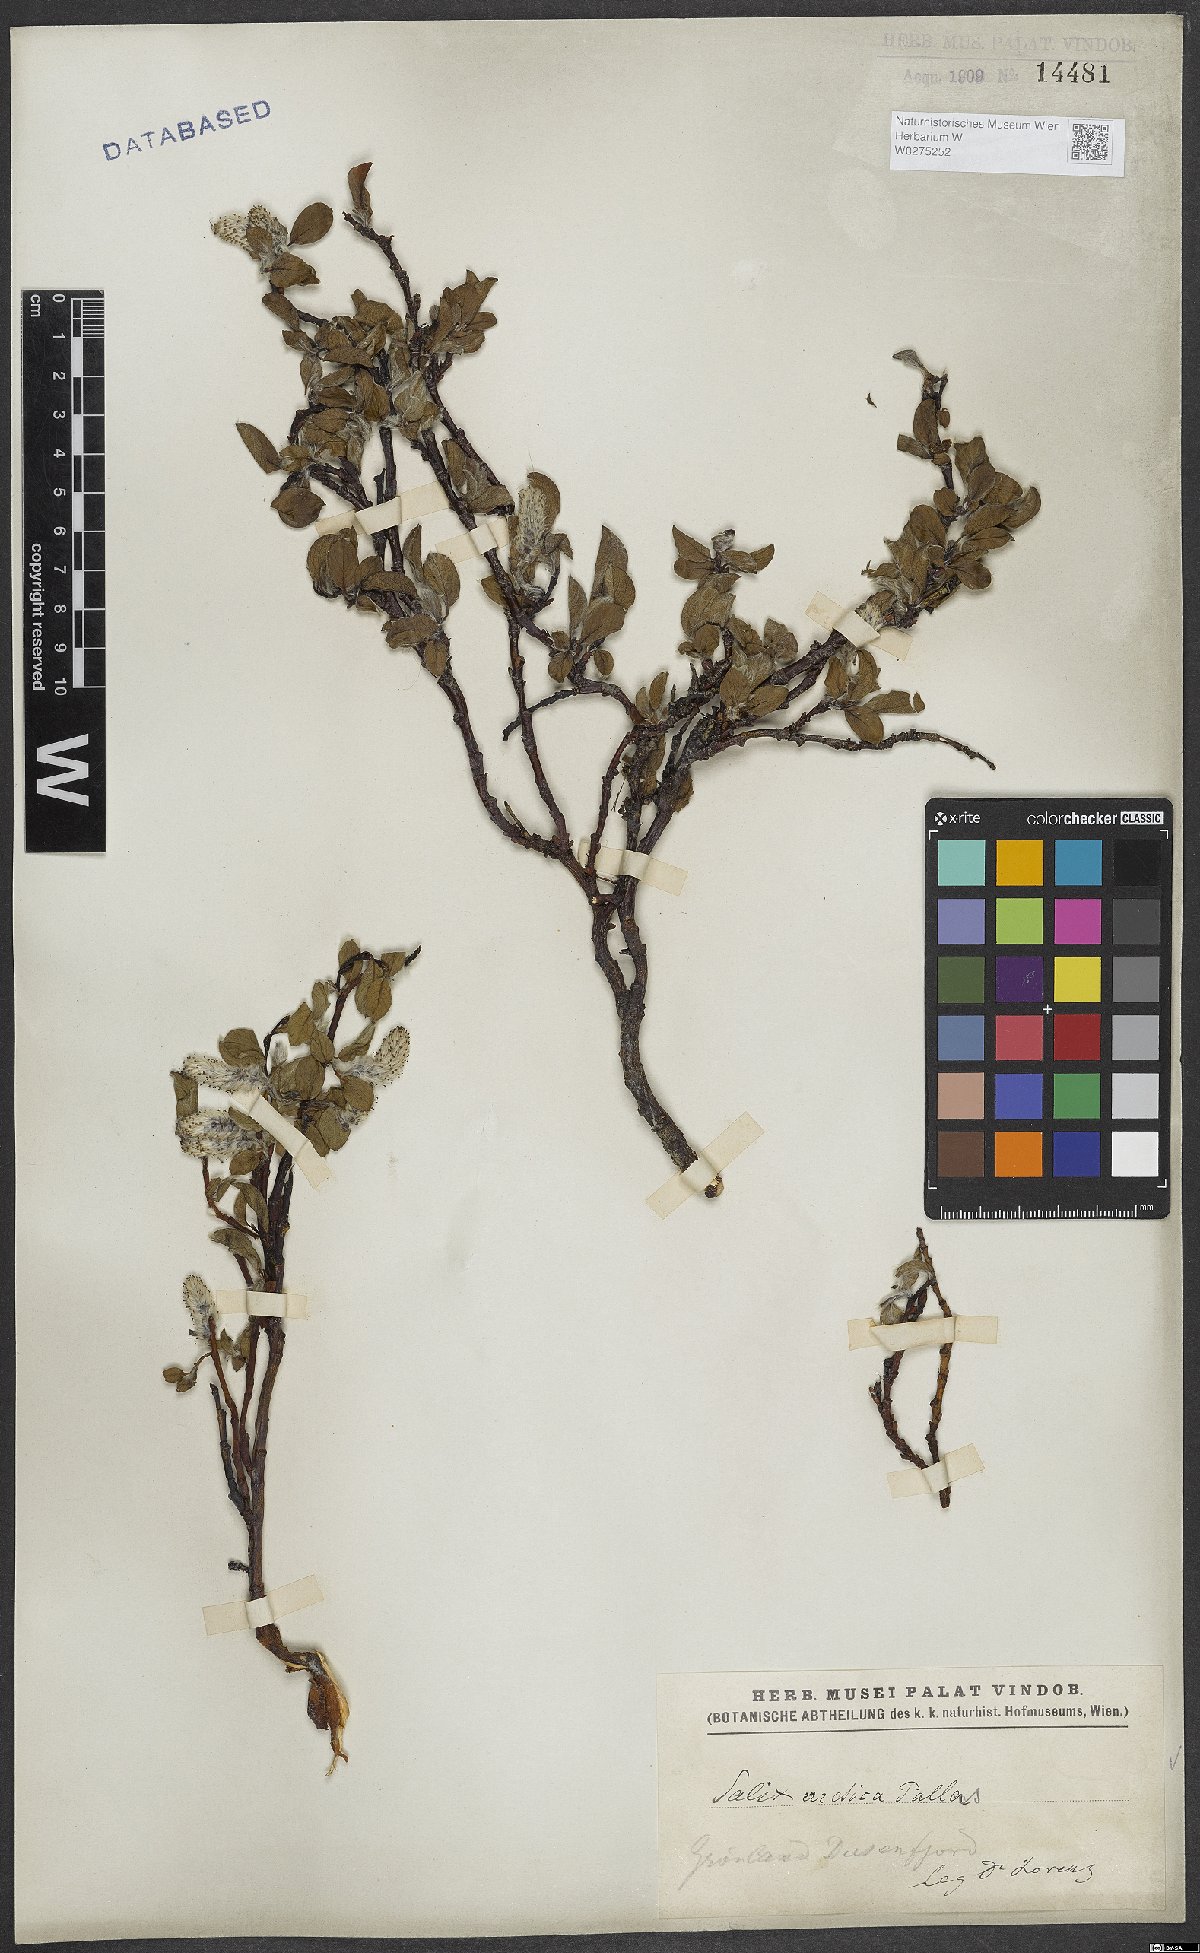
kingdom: Plantae
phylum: Tracheophyta
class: Magnoliopsida
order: Malpighiales
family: Salicaceae
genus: Salix
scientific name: Salix arctica
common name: Arctic willow
